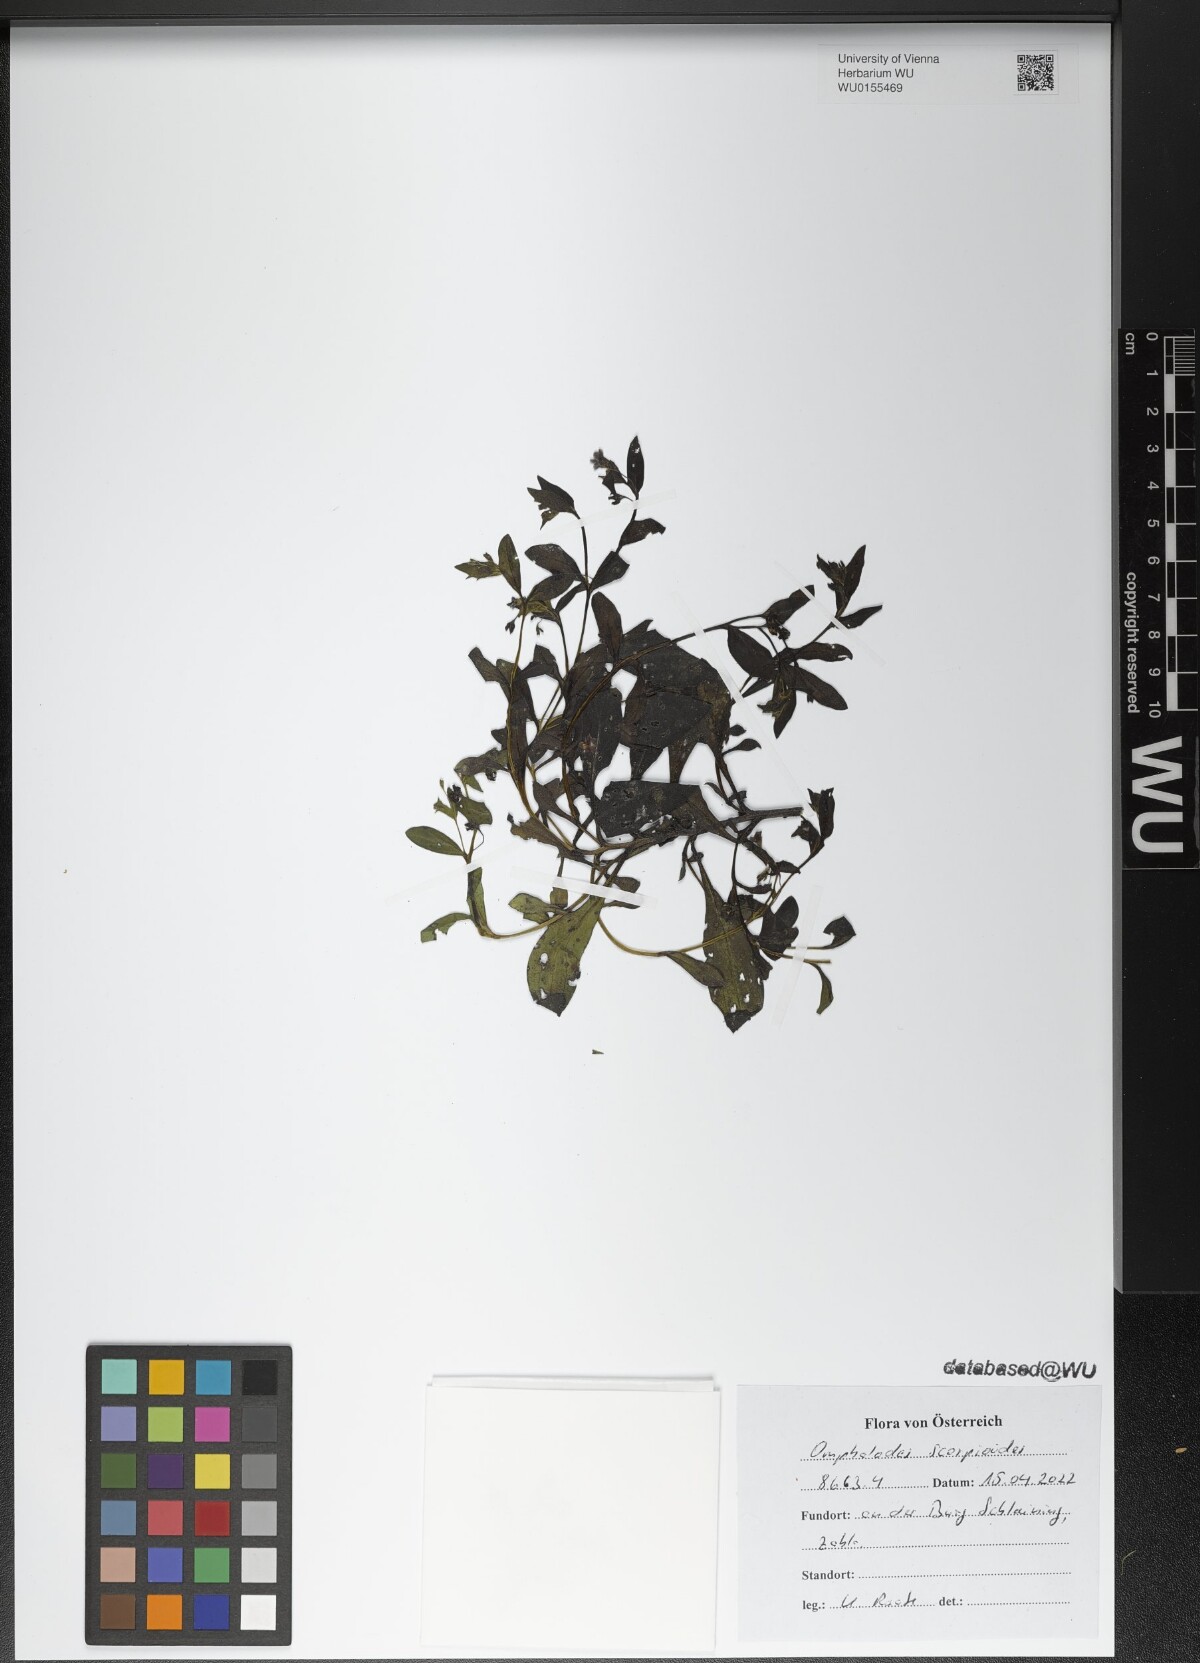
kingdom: Plantae
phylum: Tracheophyta
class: Magnoliopsida
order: Boraginales
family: Boraginaceae
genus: Memoremea
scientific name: Memoremea scorpioides
